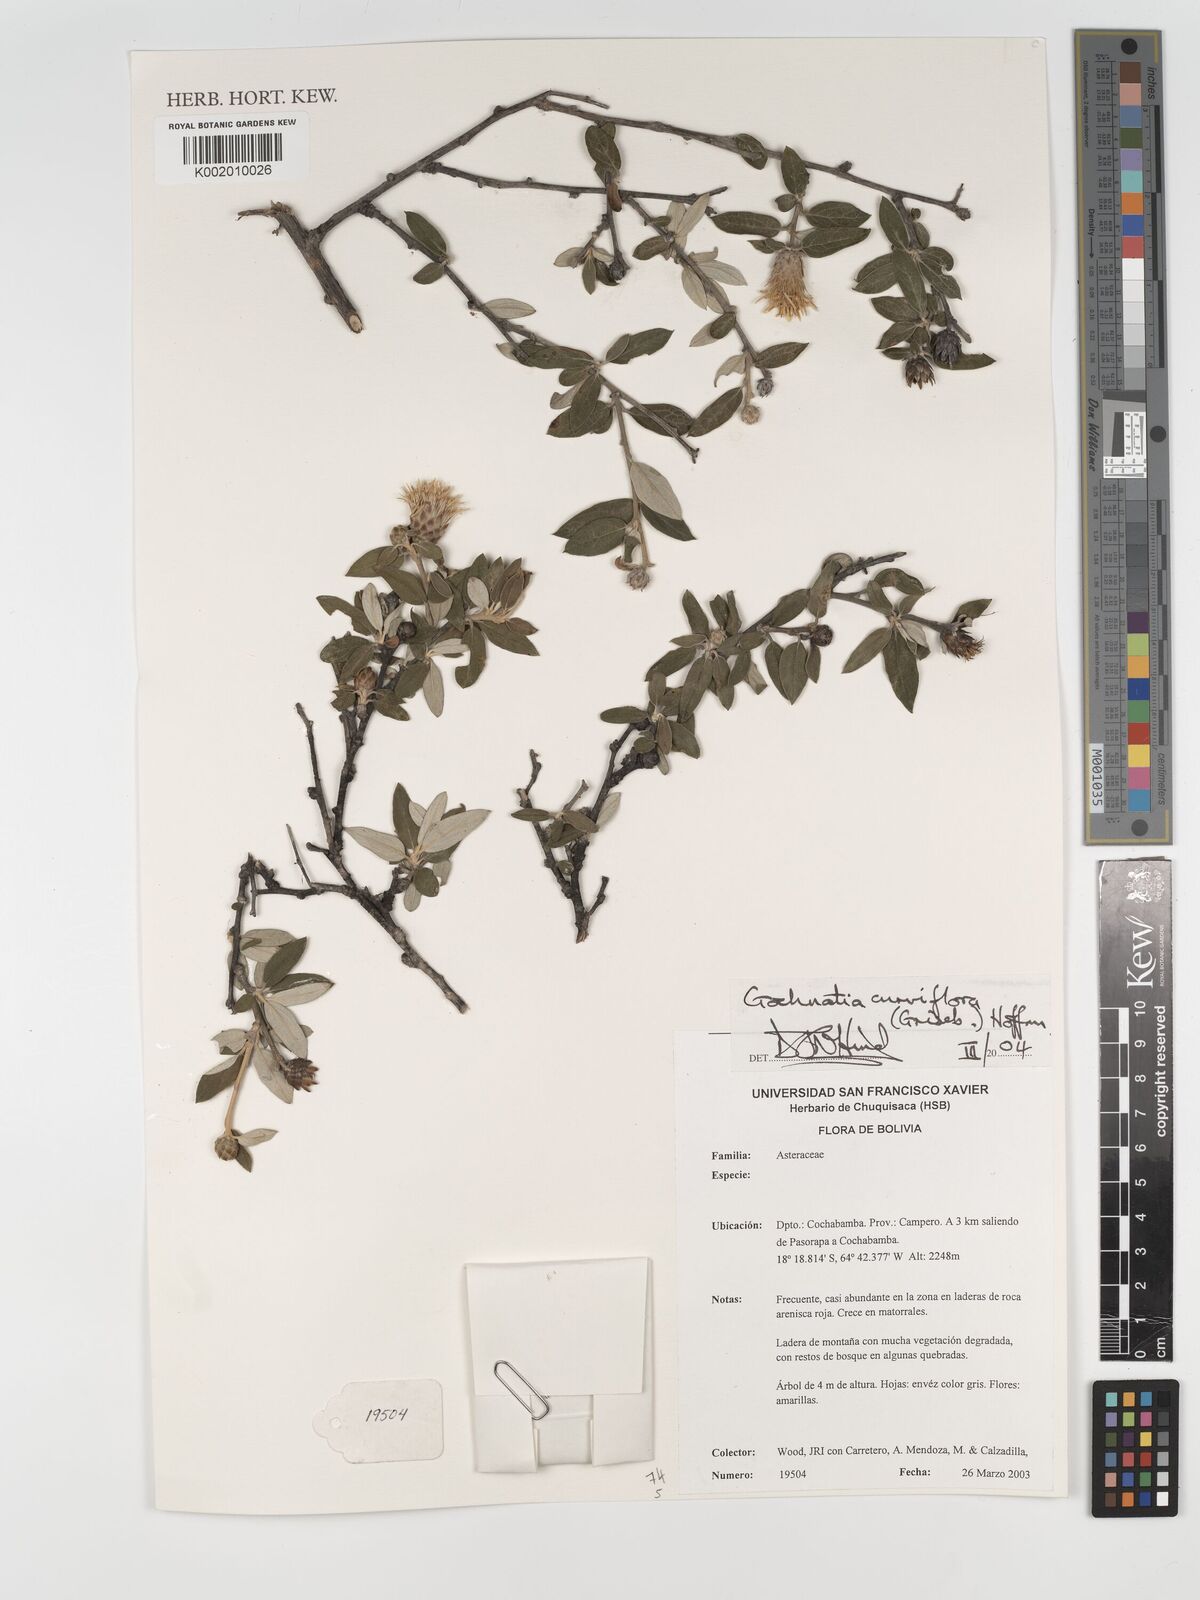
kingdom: Plantae
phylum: Tracheophyta
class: Magnoliopsida
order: Asterales
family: Asteraceae
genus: Gochnatia
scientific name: Gochnatia curviflora
